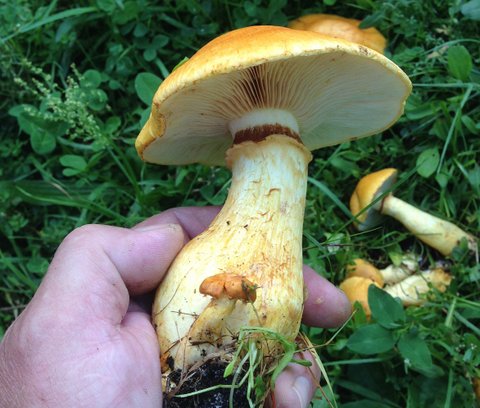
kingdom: Fungi
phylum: Basidiomycota
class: Agaricomycetes
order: Agaricales
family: Cortinariaceae
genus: Phlegmacium
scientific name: Phlegmacium triumphans
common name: gulbæltet slørhat
